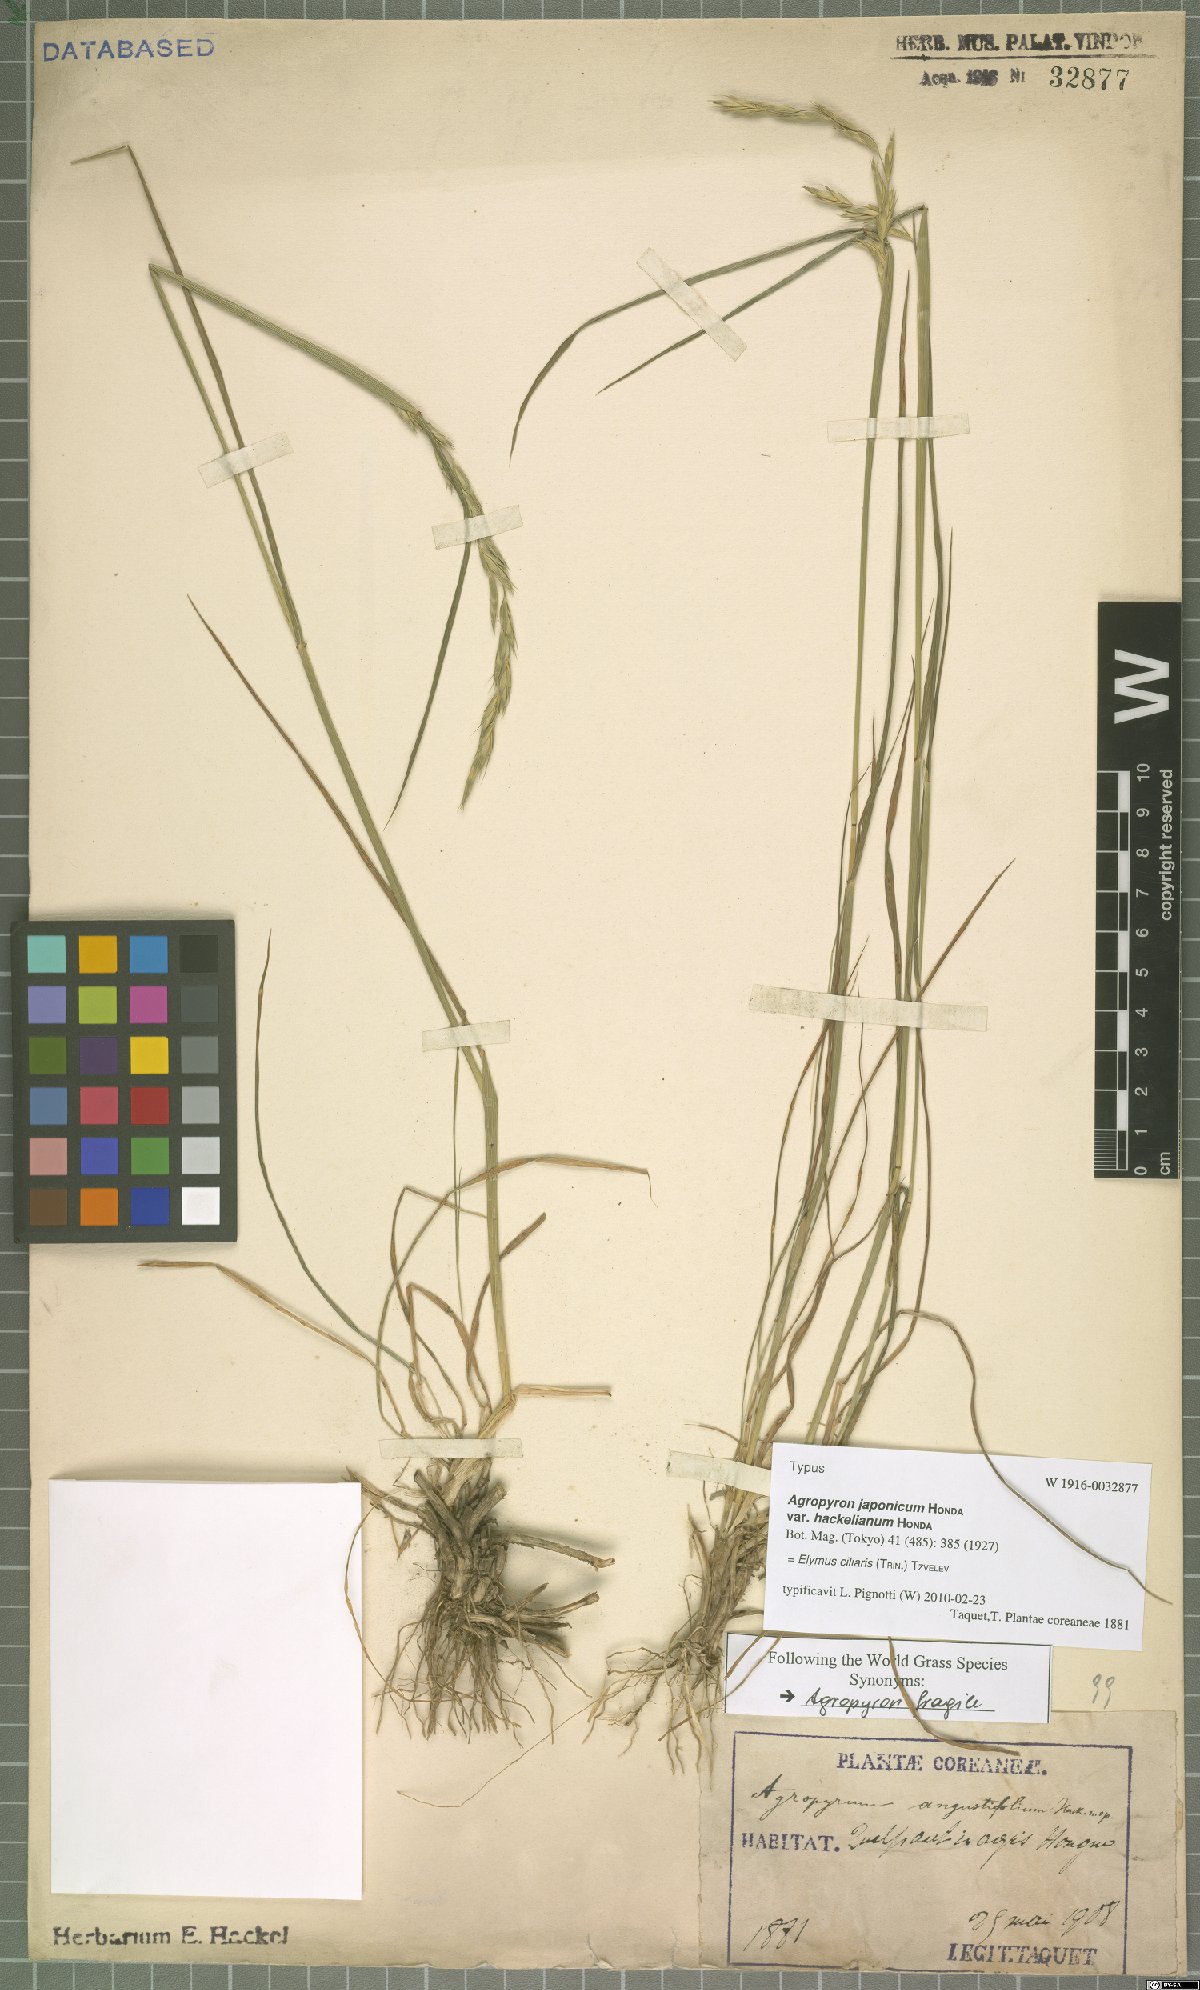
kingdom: Plantae
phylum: Tracheophyta
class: Liliopsida
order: Poales
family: Poaceae
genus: Elymus
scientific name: Elymus ciliaris
